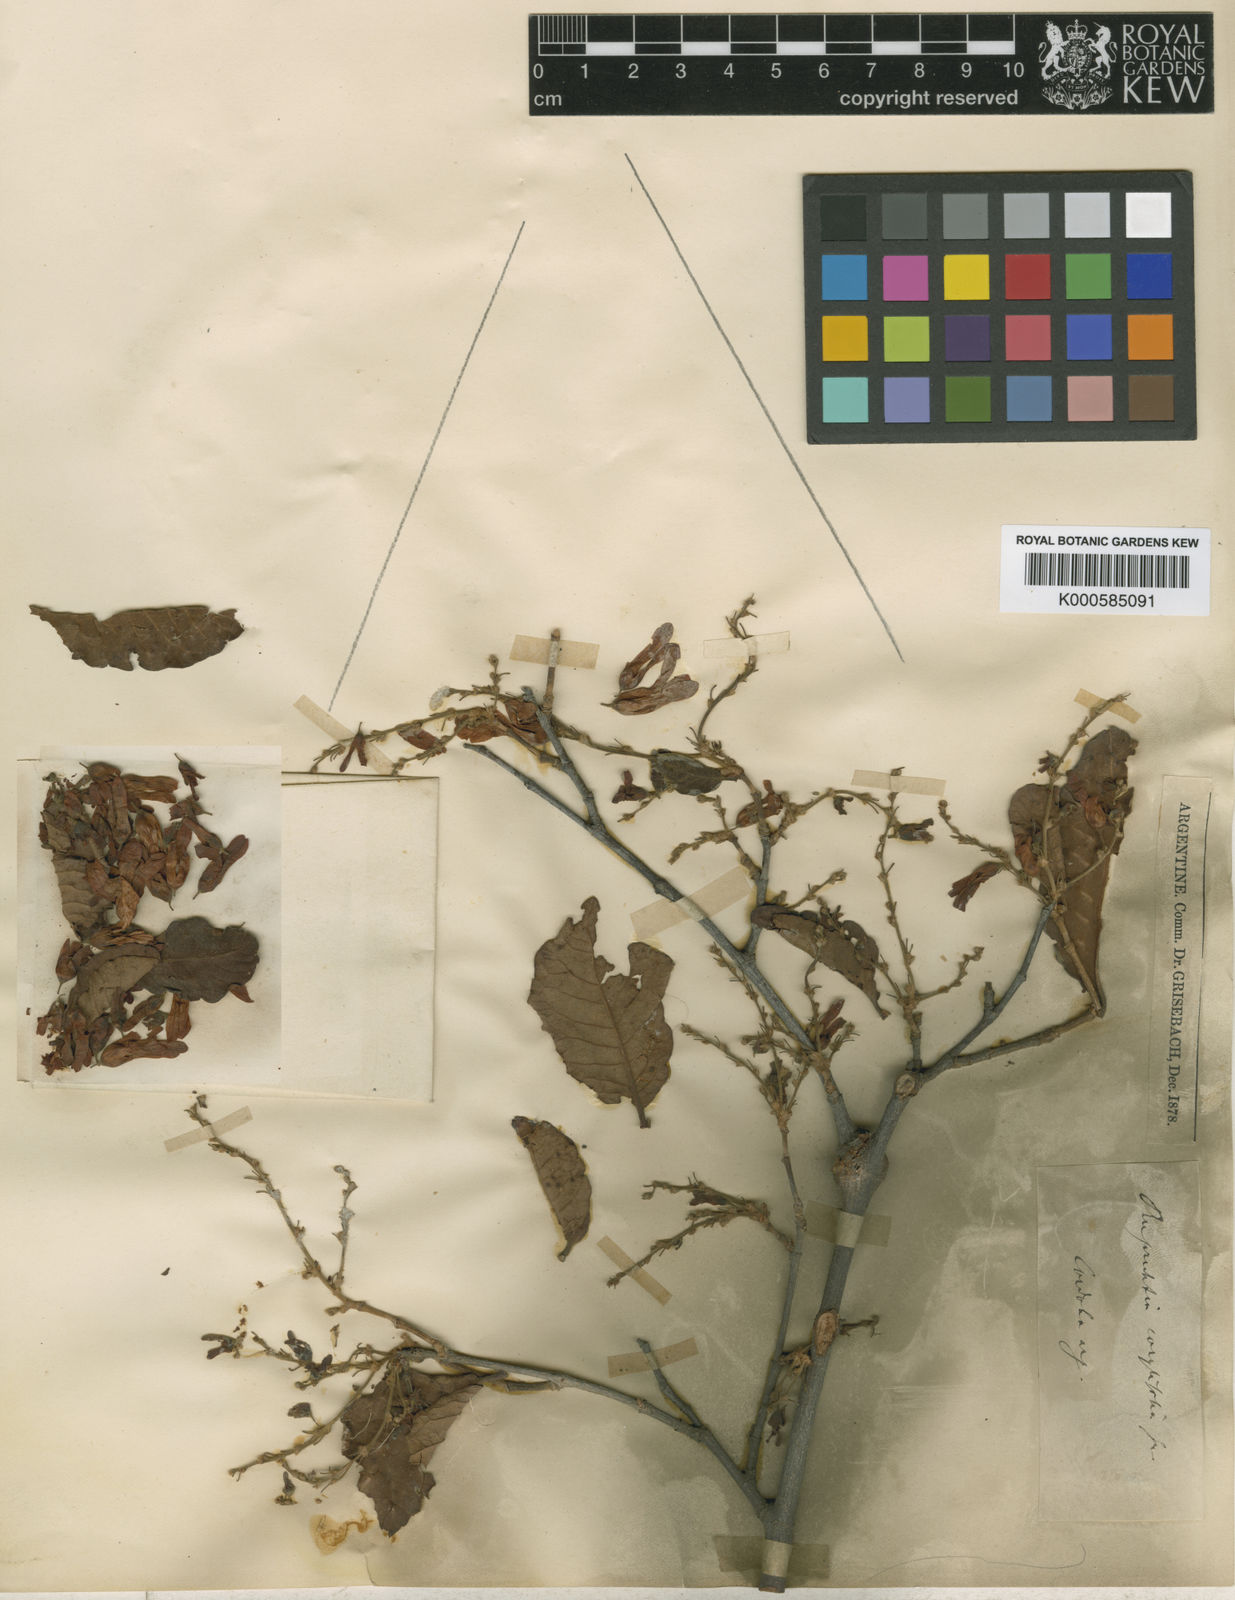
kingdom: Plantae
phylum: Tracheophyta
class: Magnoliopsida
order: Caryophyllales
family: Polygonaceae
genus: Ruprechtia
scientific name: Ruprechtia apetala
